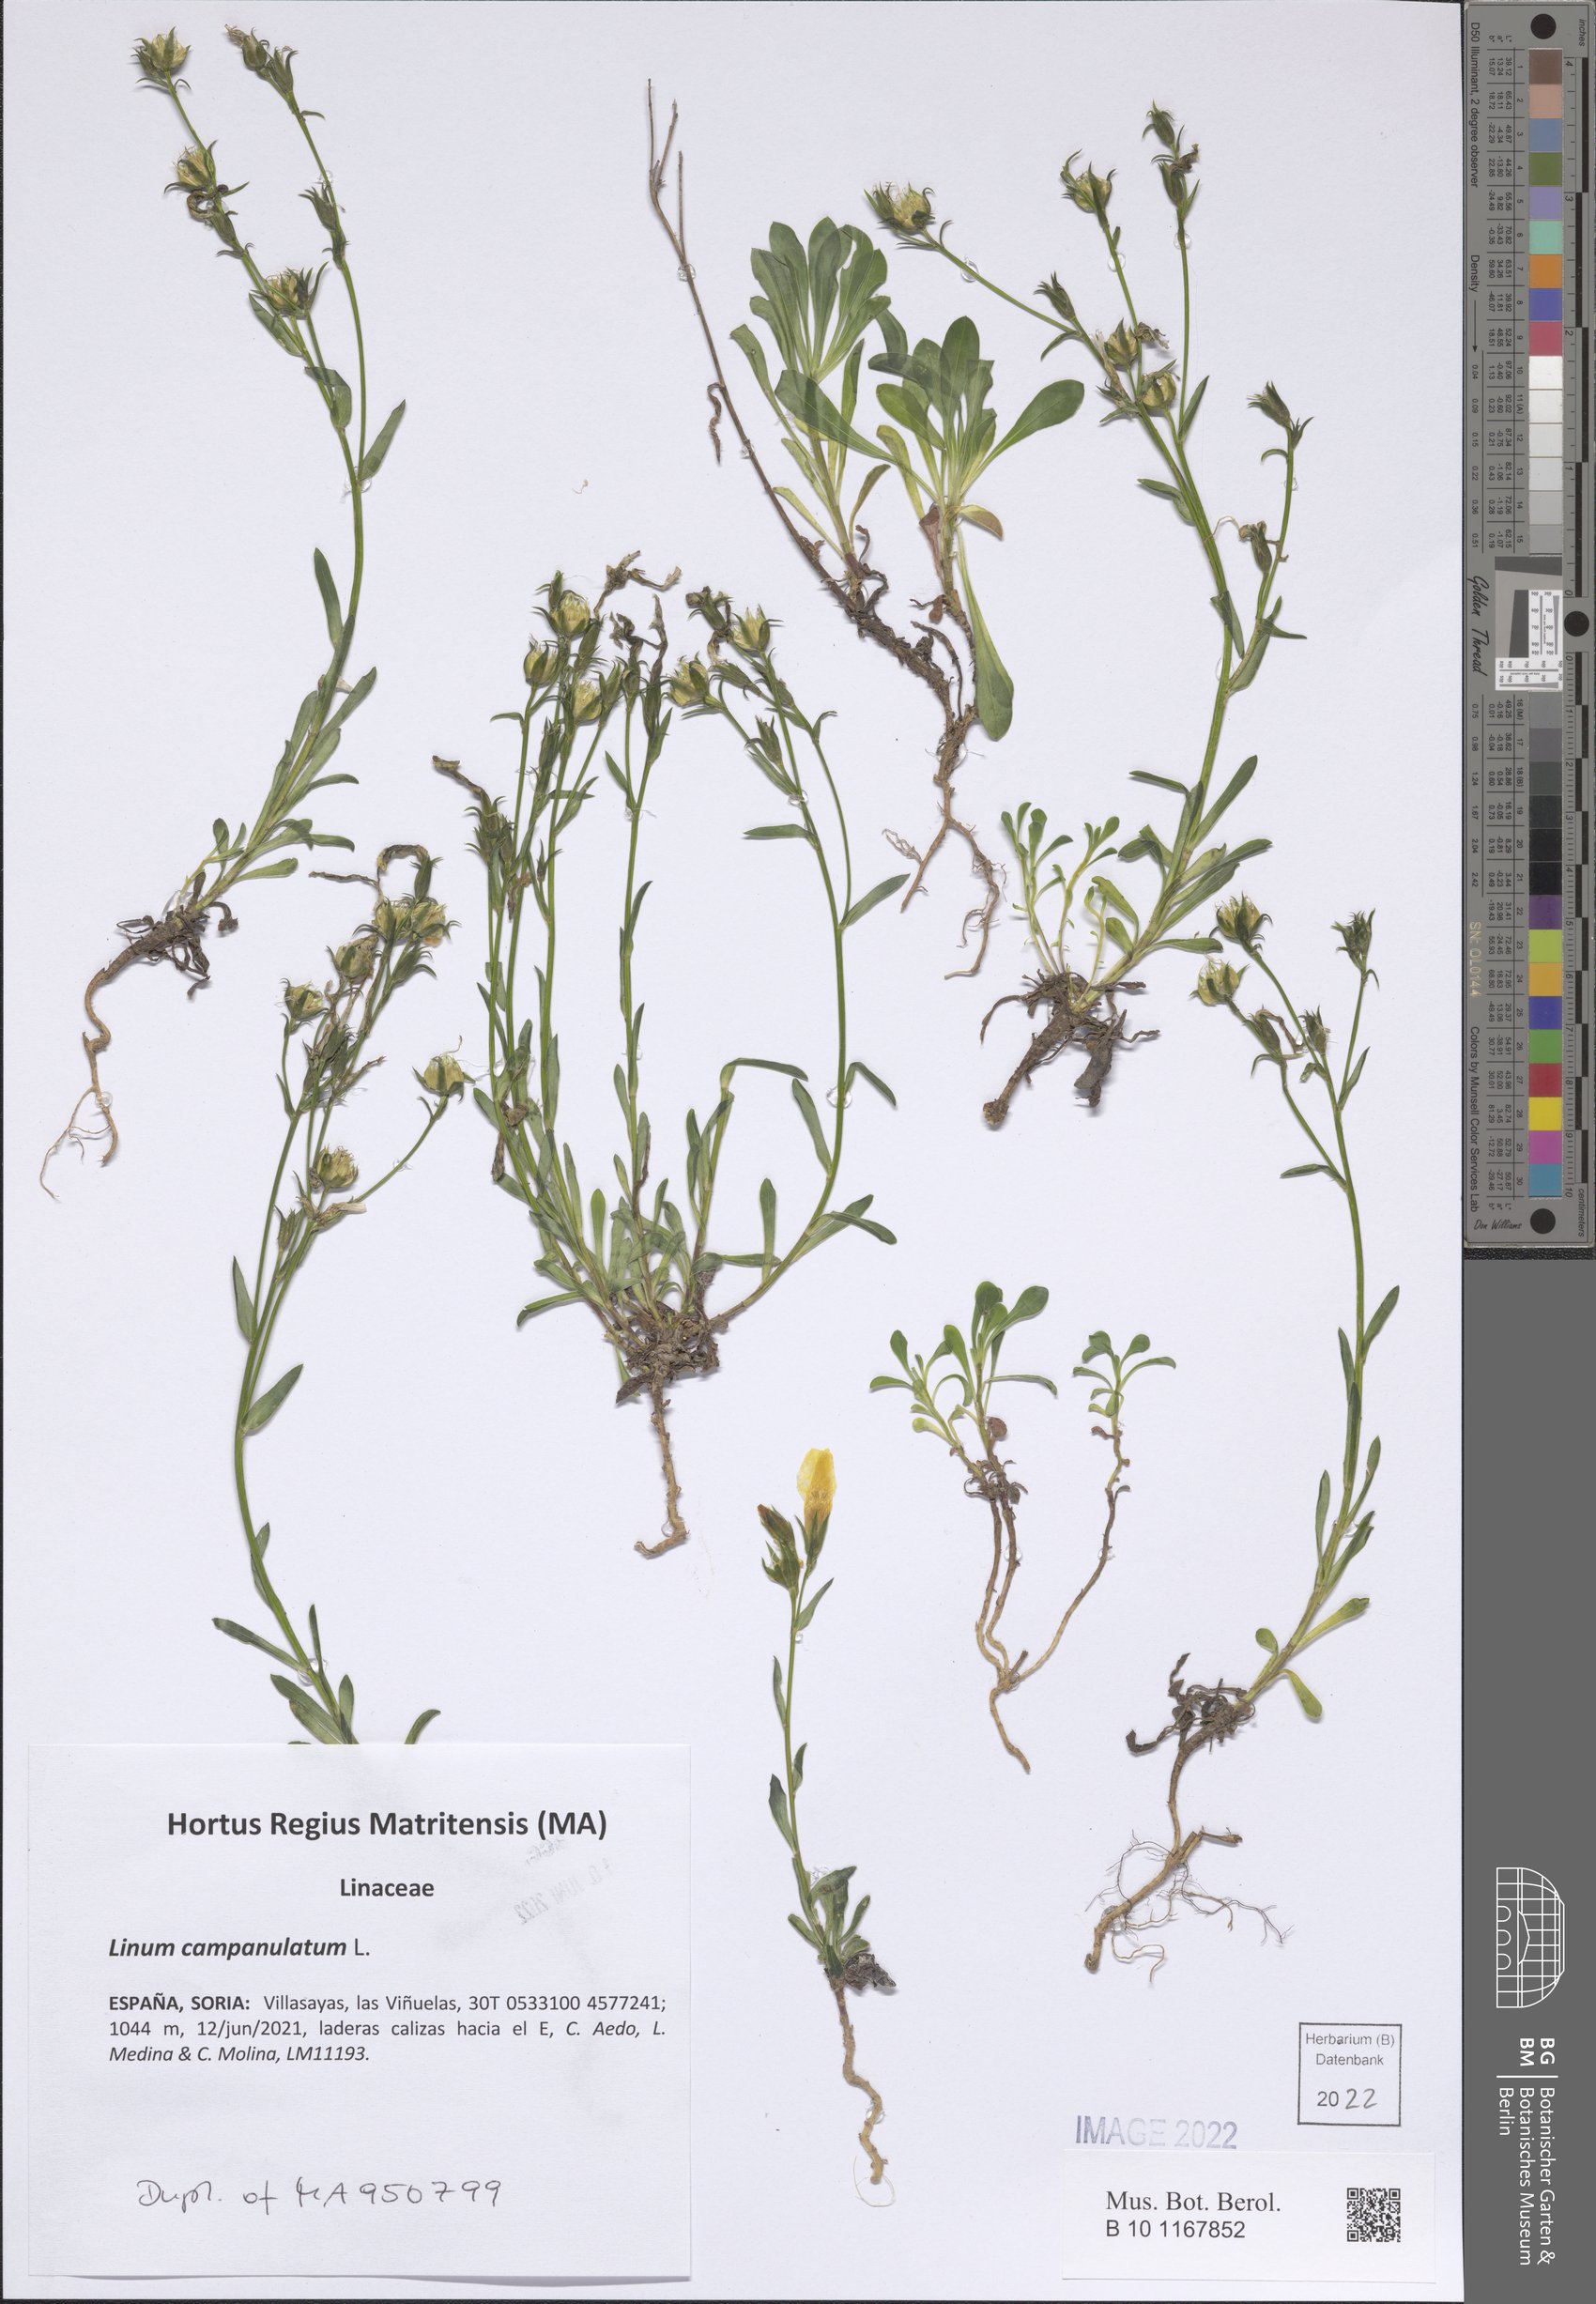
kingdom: Plantae
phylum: Tracheophyta
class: Magnoliopsida
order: Malpighiales
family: Linaceae
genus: Linum
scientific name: Linum campanulatum
